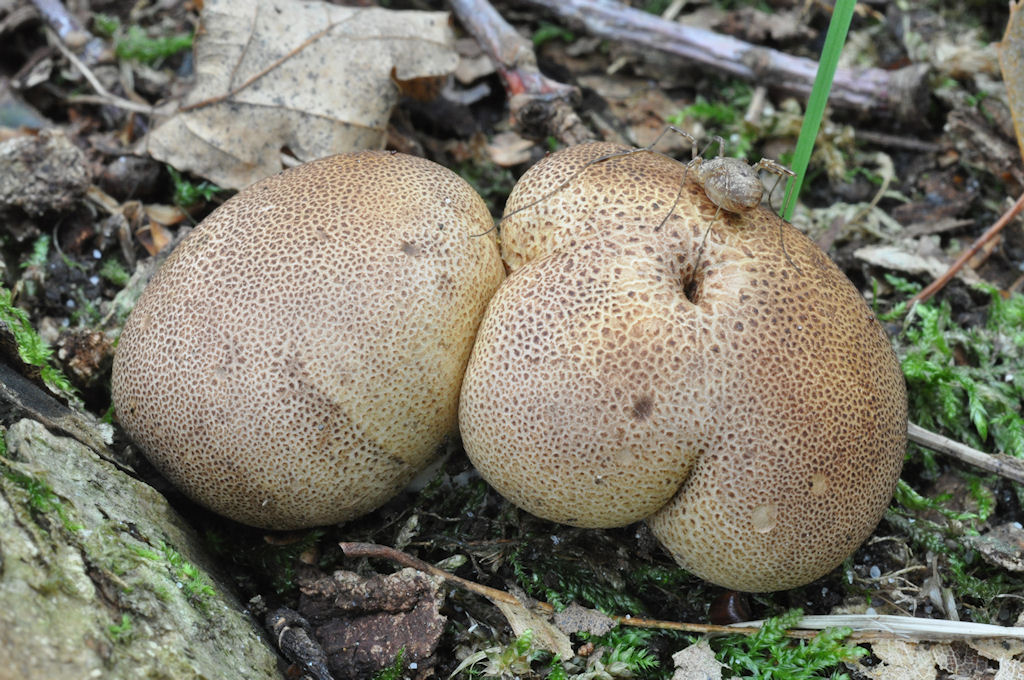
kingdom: Fungi
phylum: Basidiomycota
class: Agaricomycetes
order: Boletales
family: Sclerodermataceae
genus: Scleroderma
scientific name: Scleroderma areolatum
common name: plettet bruskbold
